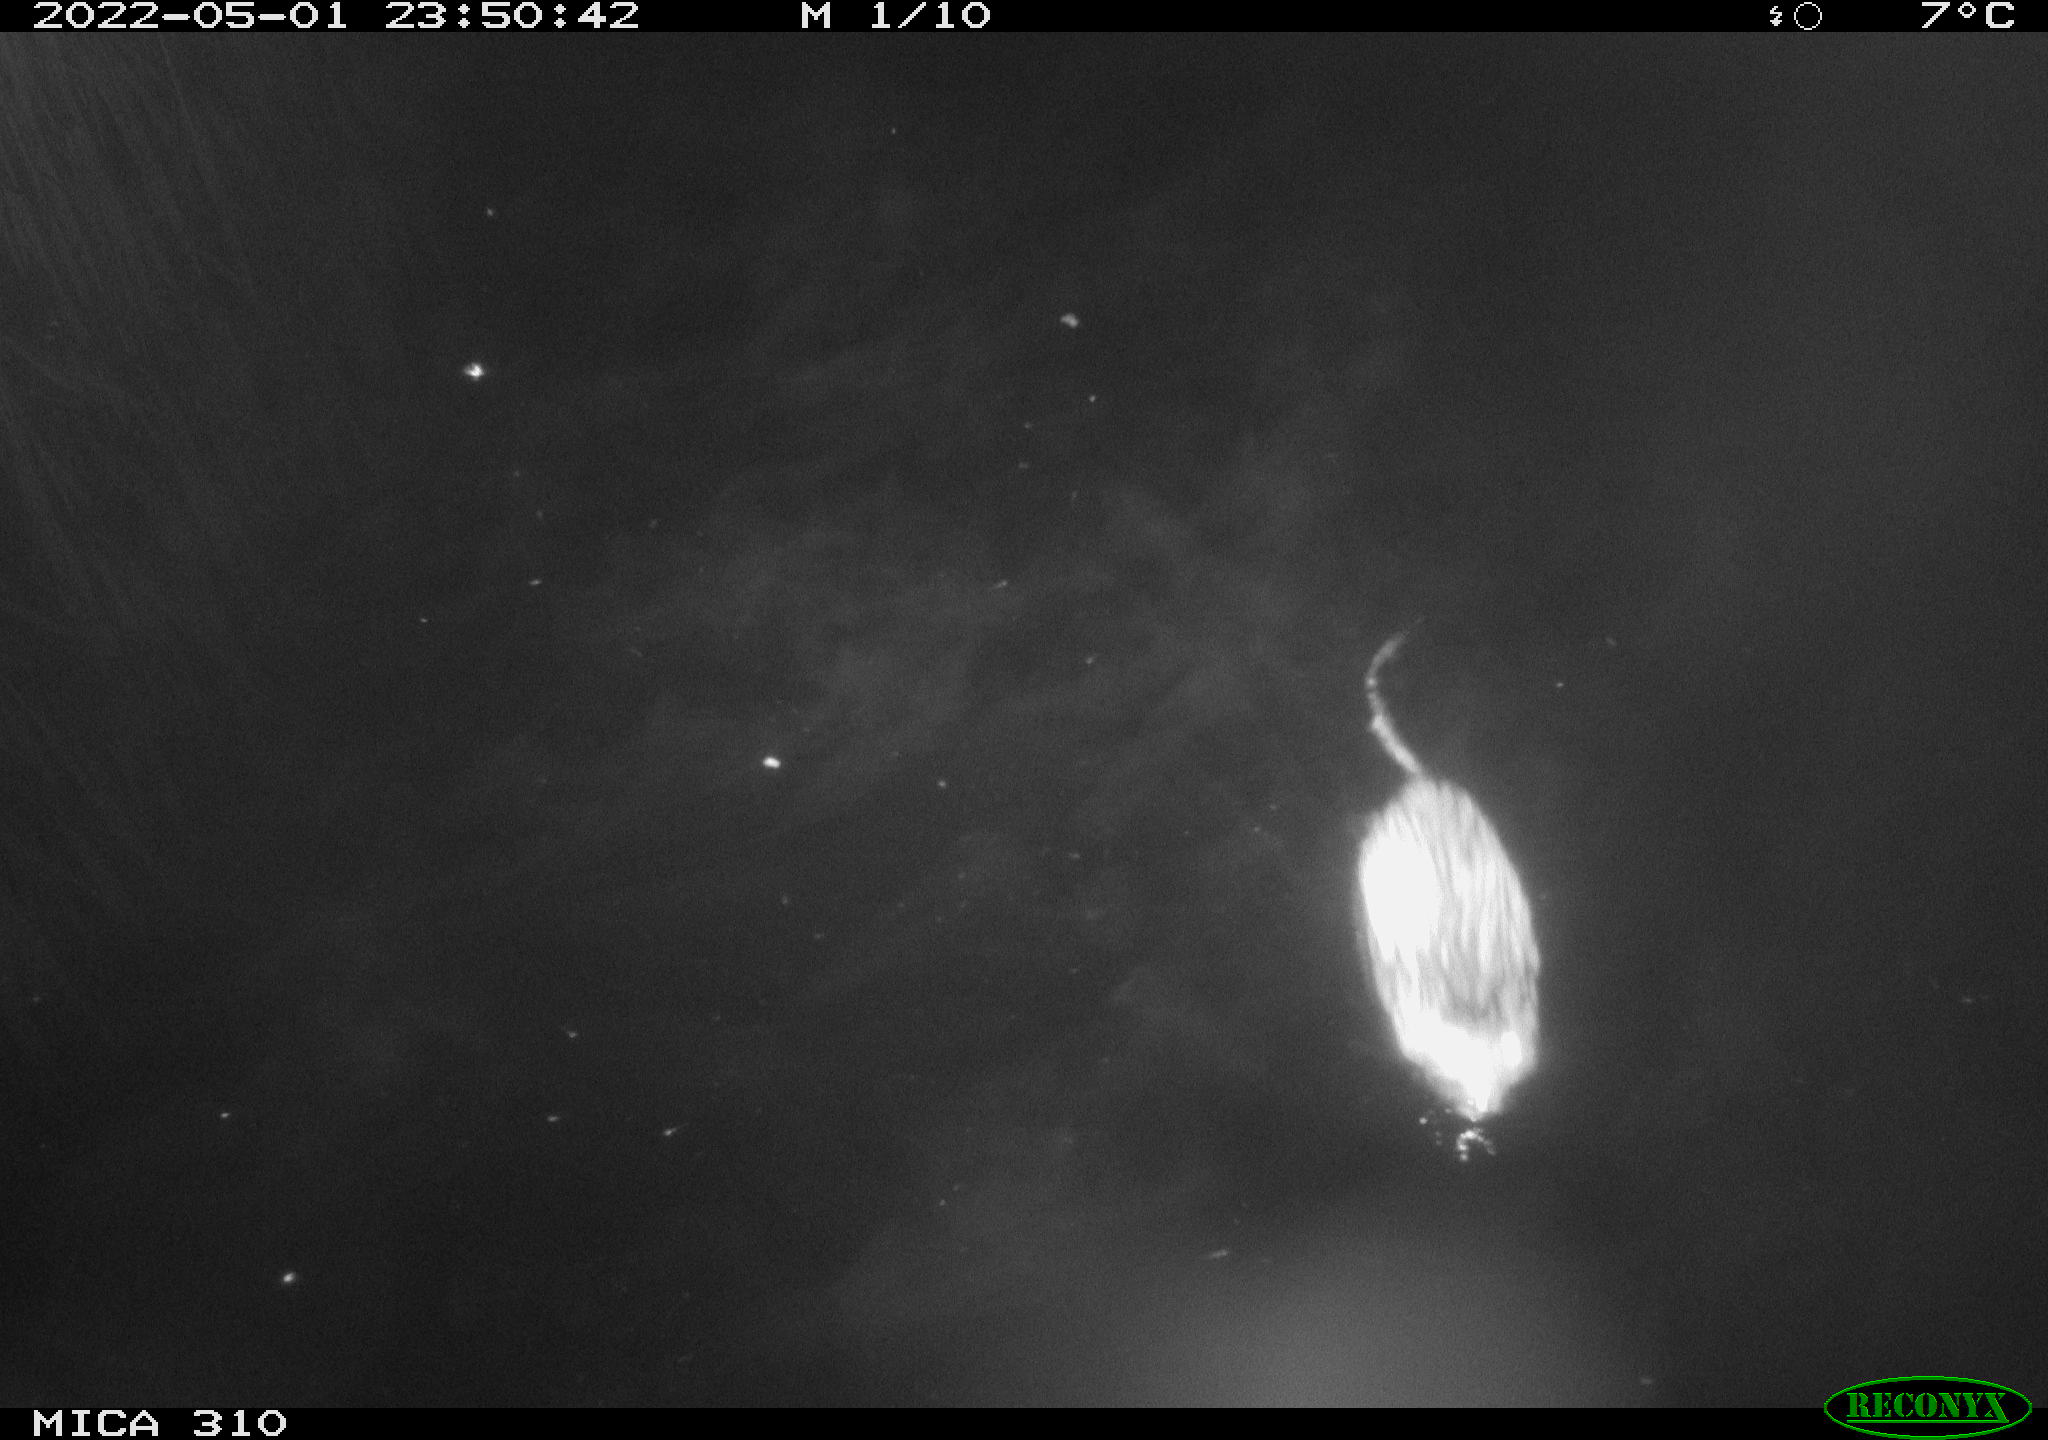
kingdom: Animalia
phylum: Chordata
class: Mammalia
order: Rodentia
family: Cricetidae
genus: Ondatra
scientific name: Ondatra zibethicus
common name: Muskrat
